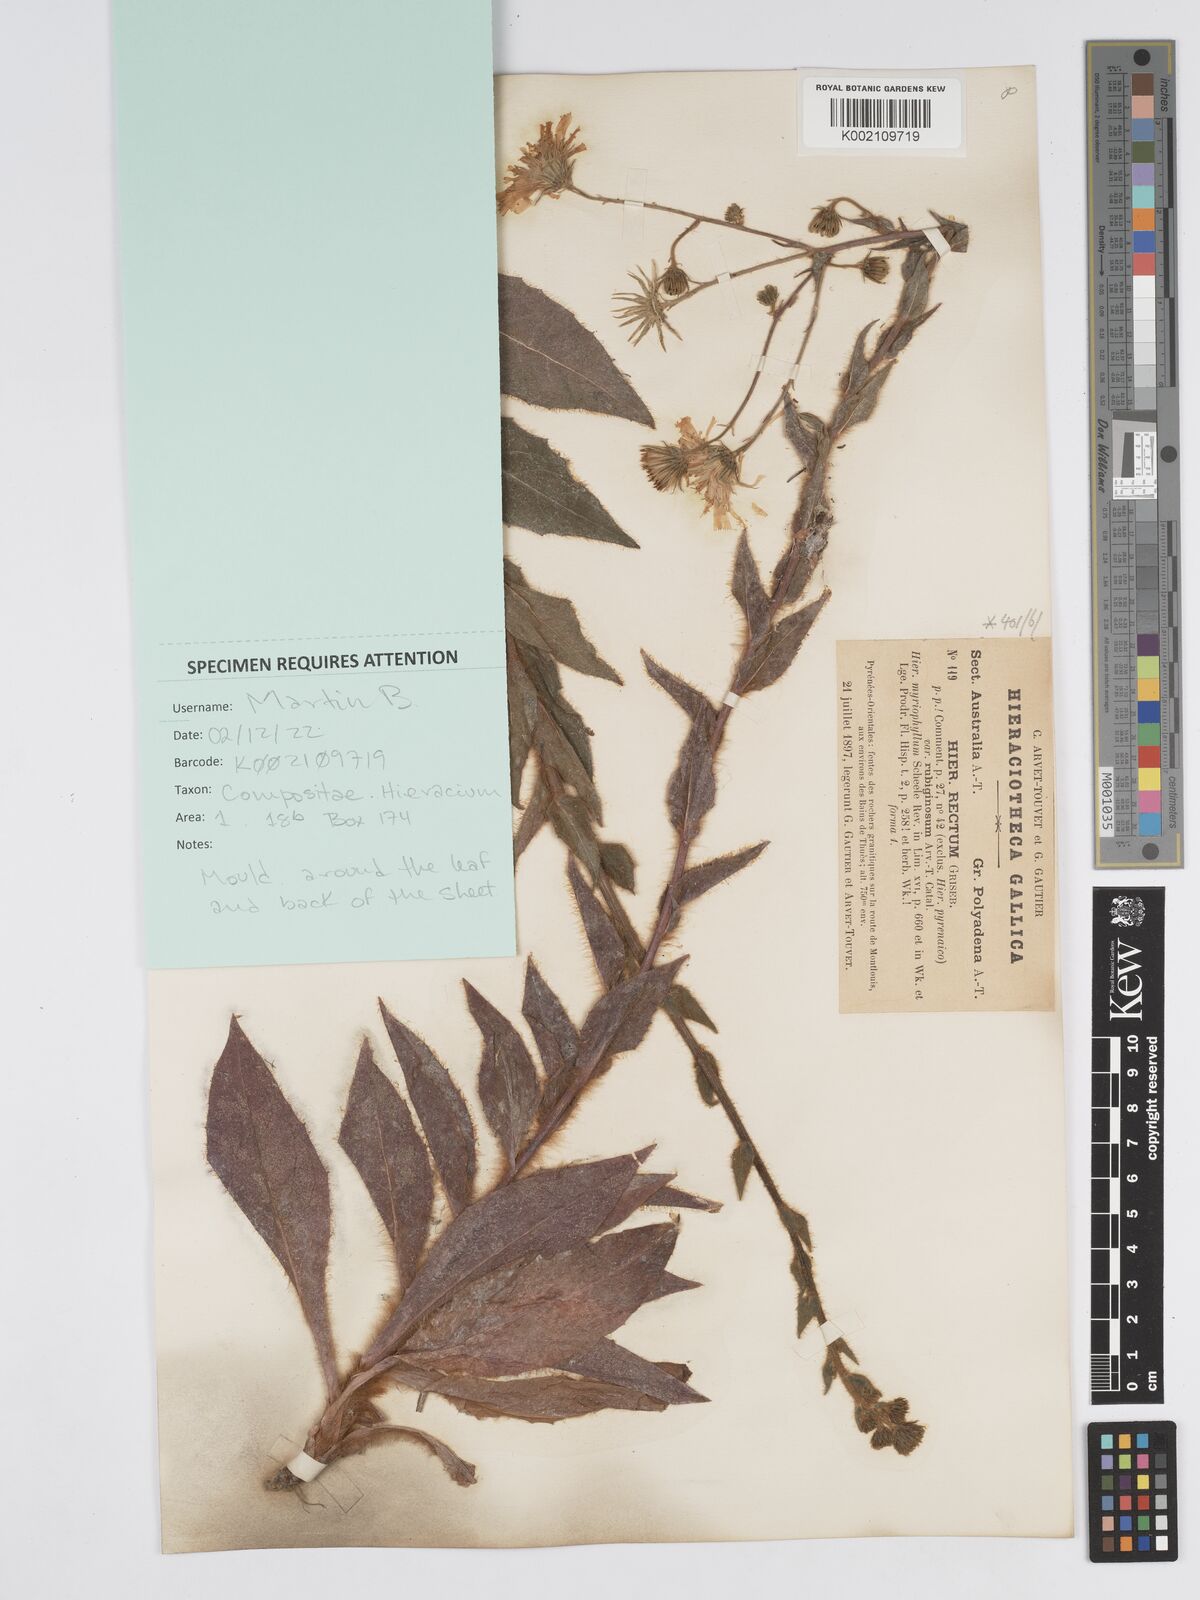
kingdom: Plantae
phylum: Tracheophyta
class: Magnoliopsida
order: Asterales
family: Asteraceae
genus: Hieracium
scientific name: Hieracium
